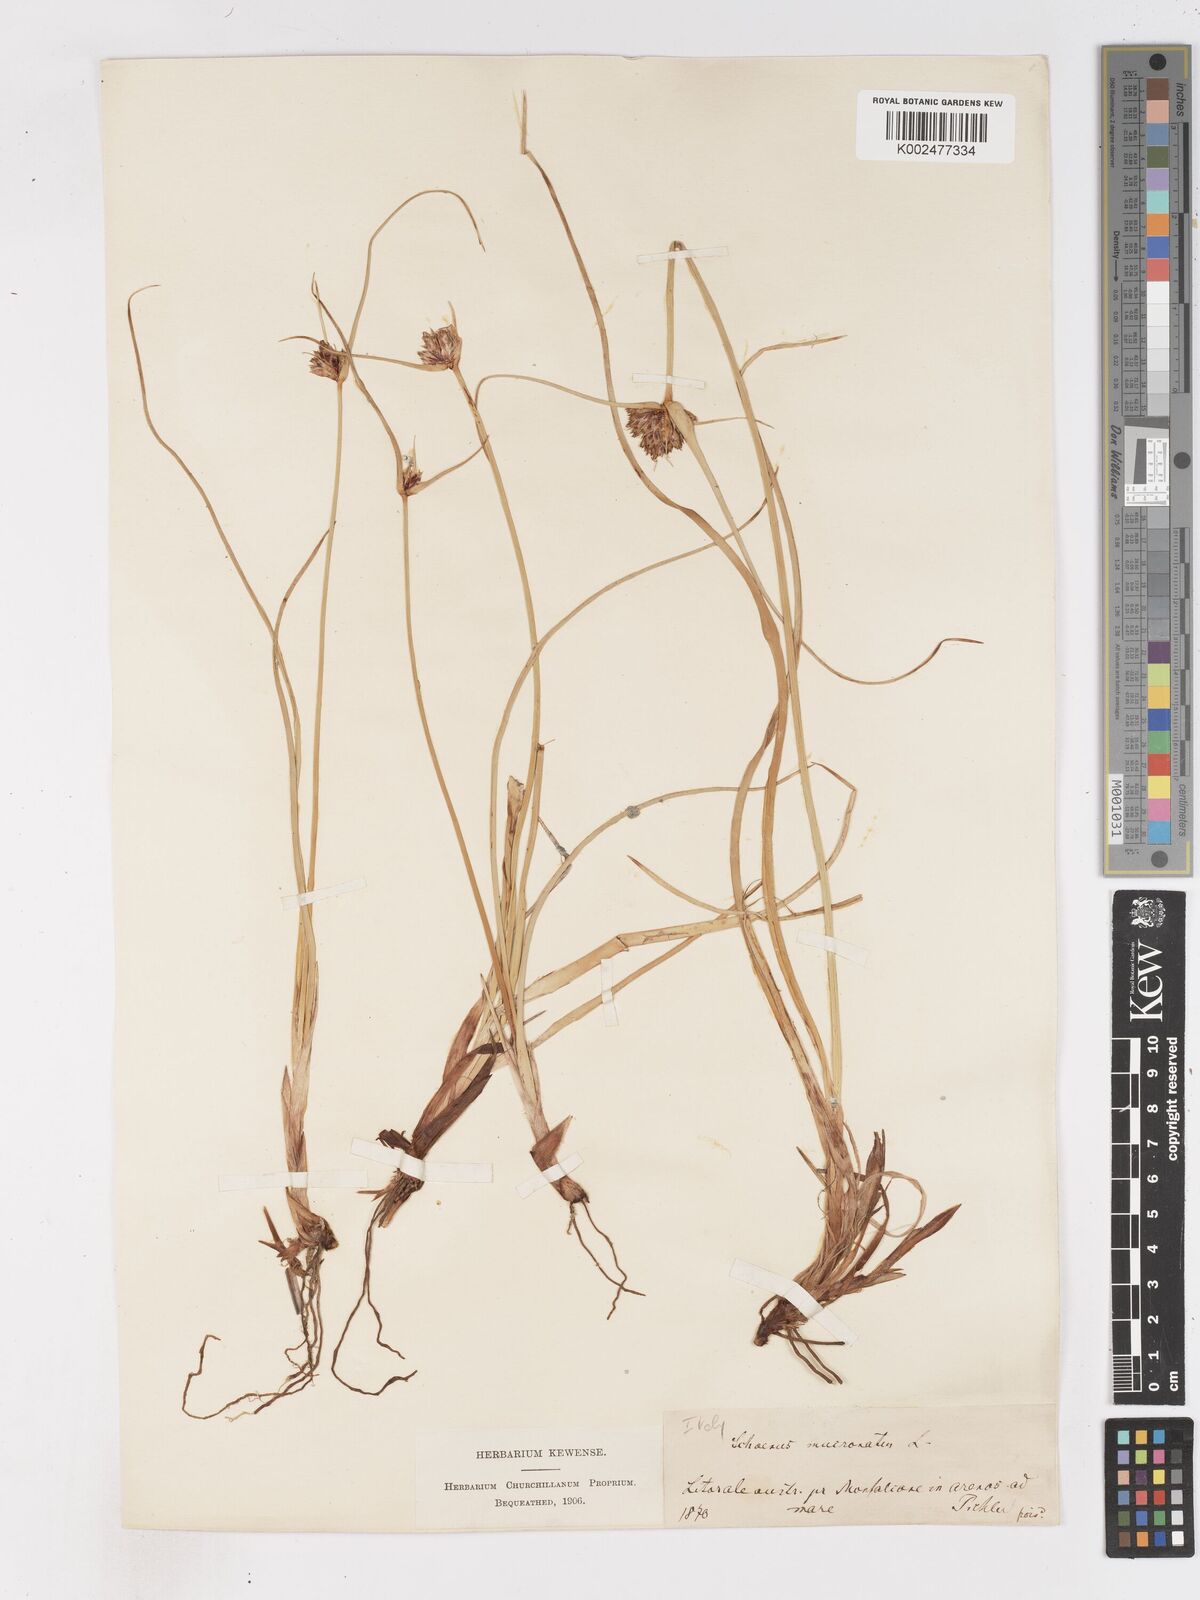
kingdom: Plantae
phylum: Tracheophyta
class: Liliopsida
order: Poales
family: Cyperaceae
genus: Cyperus
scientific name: Cyperus capitatus
